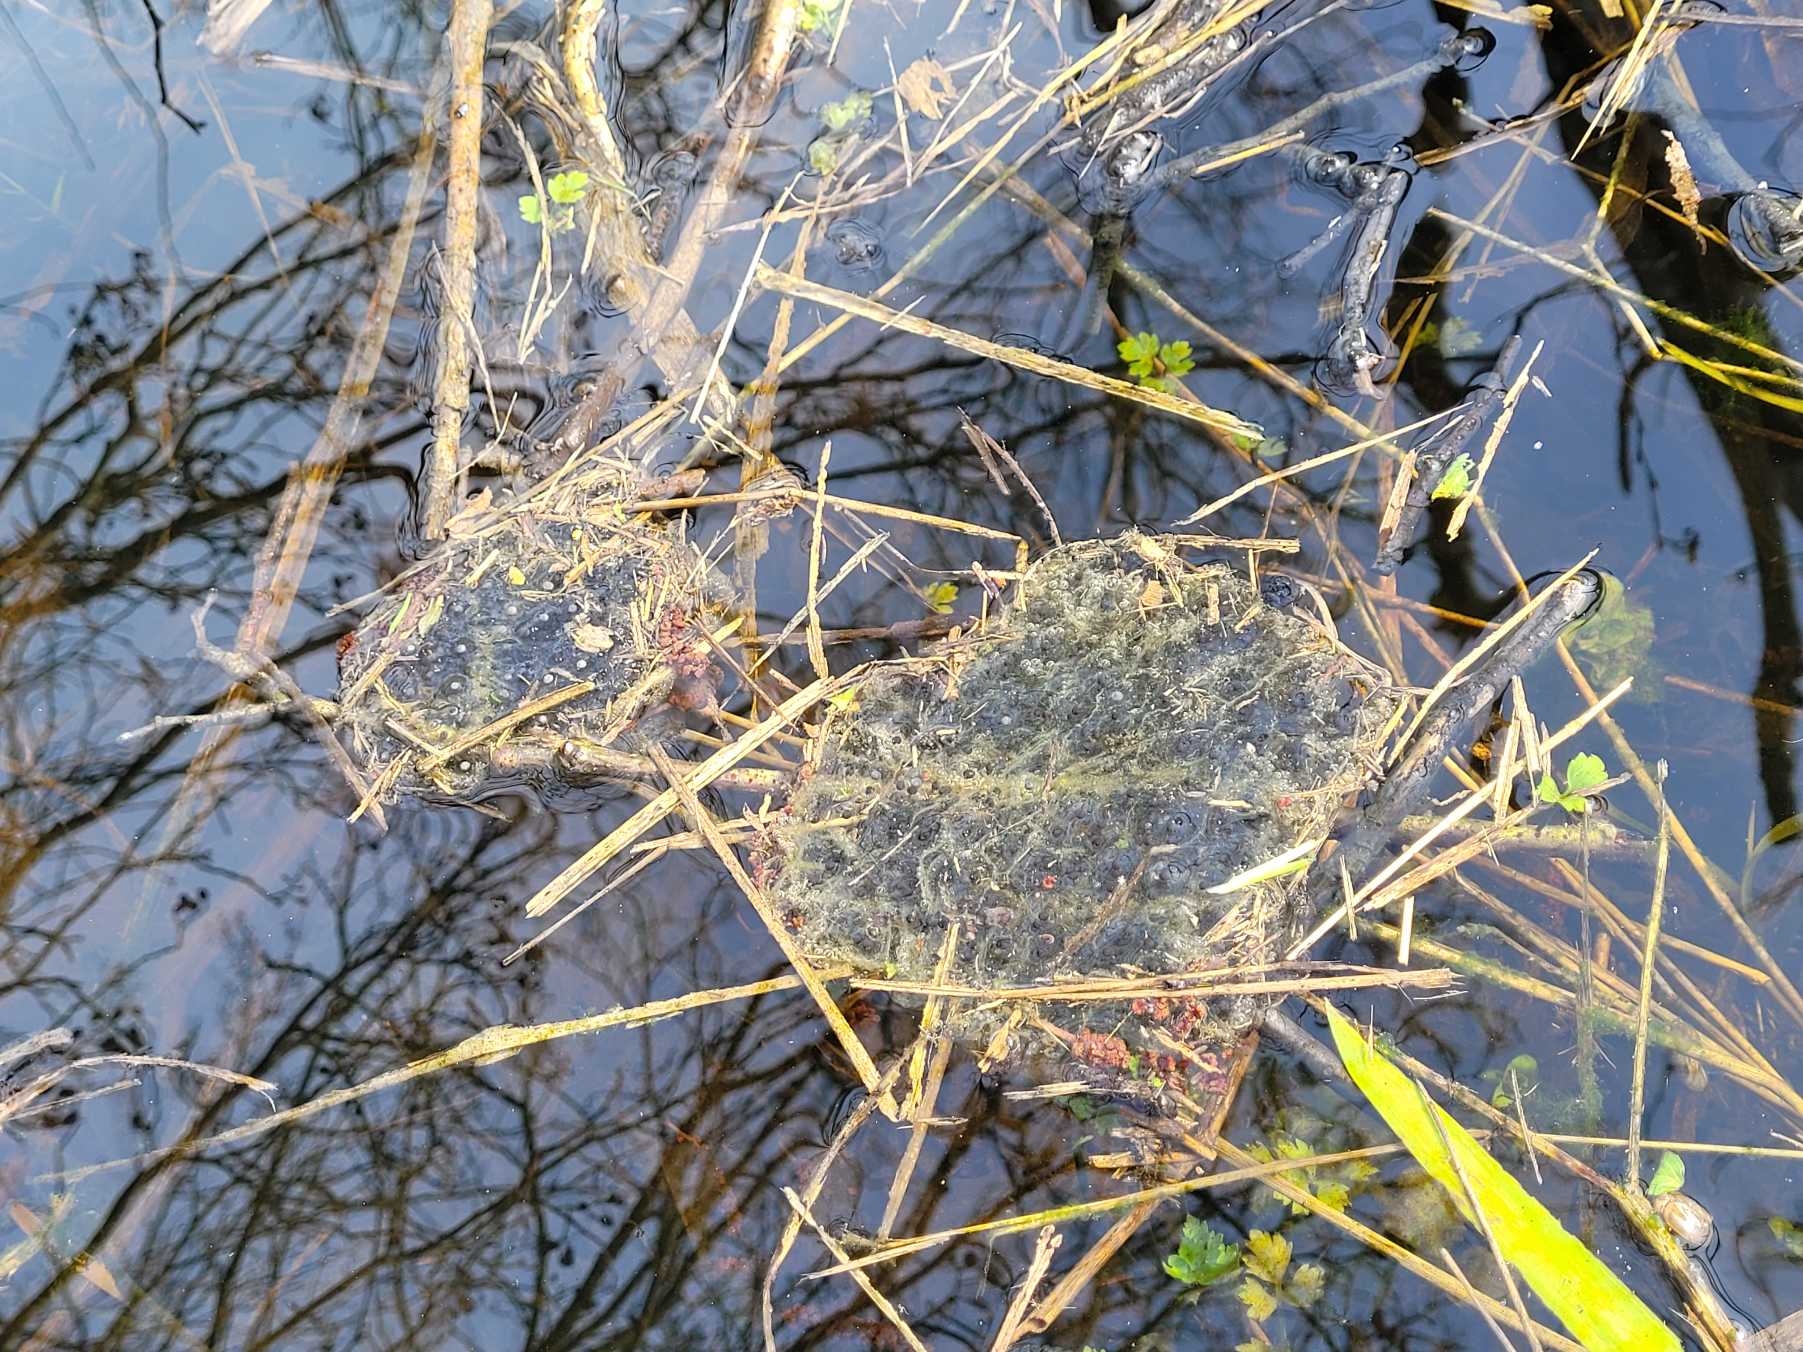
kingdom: Animalia
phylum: Chordata
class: Amphibia
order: Anura
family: Ranidae
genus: Rana
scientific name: Rana dalmatina
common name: Springfrø
